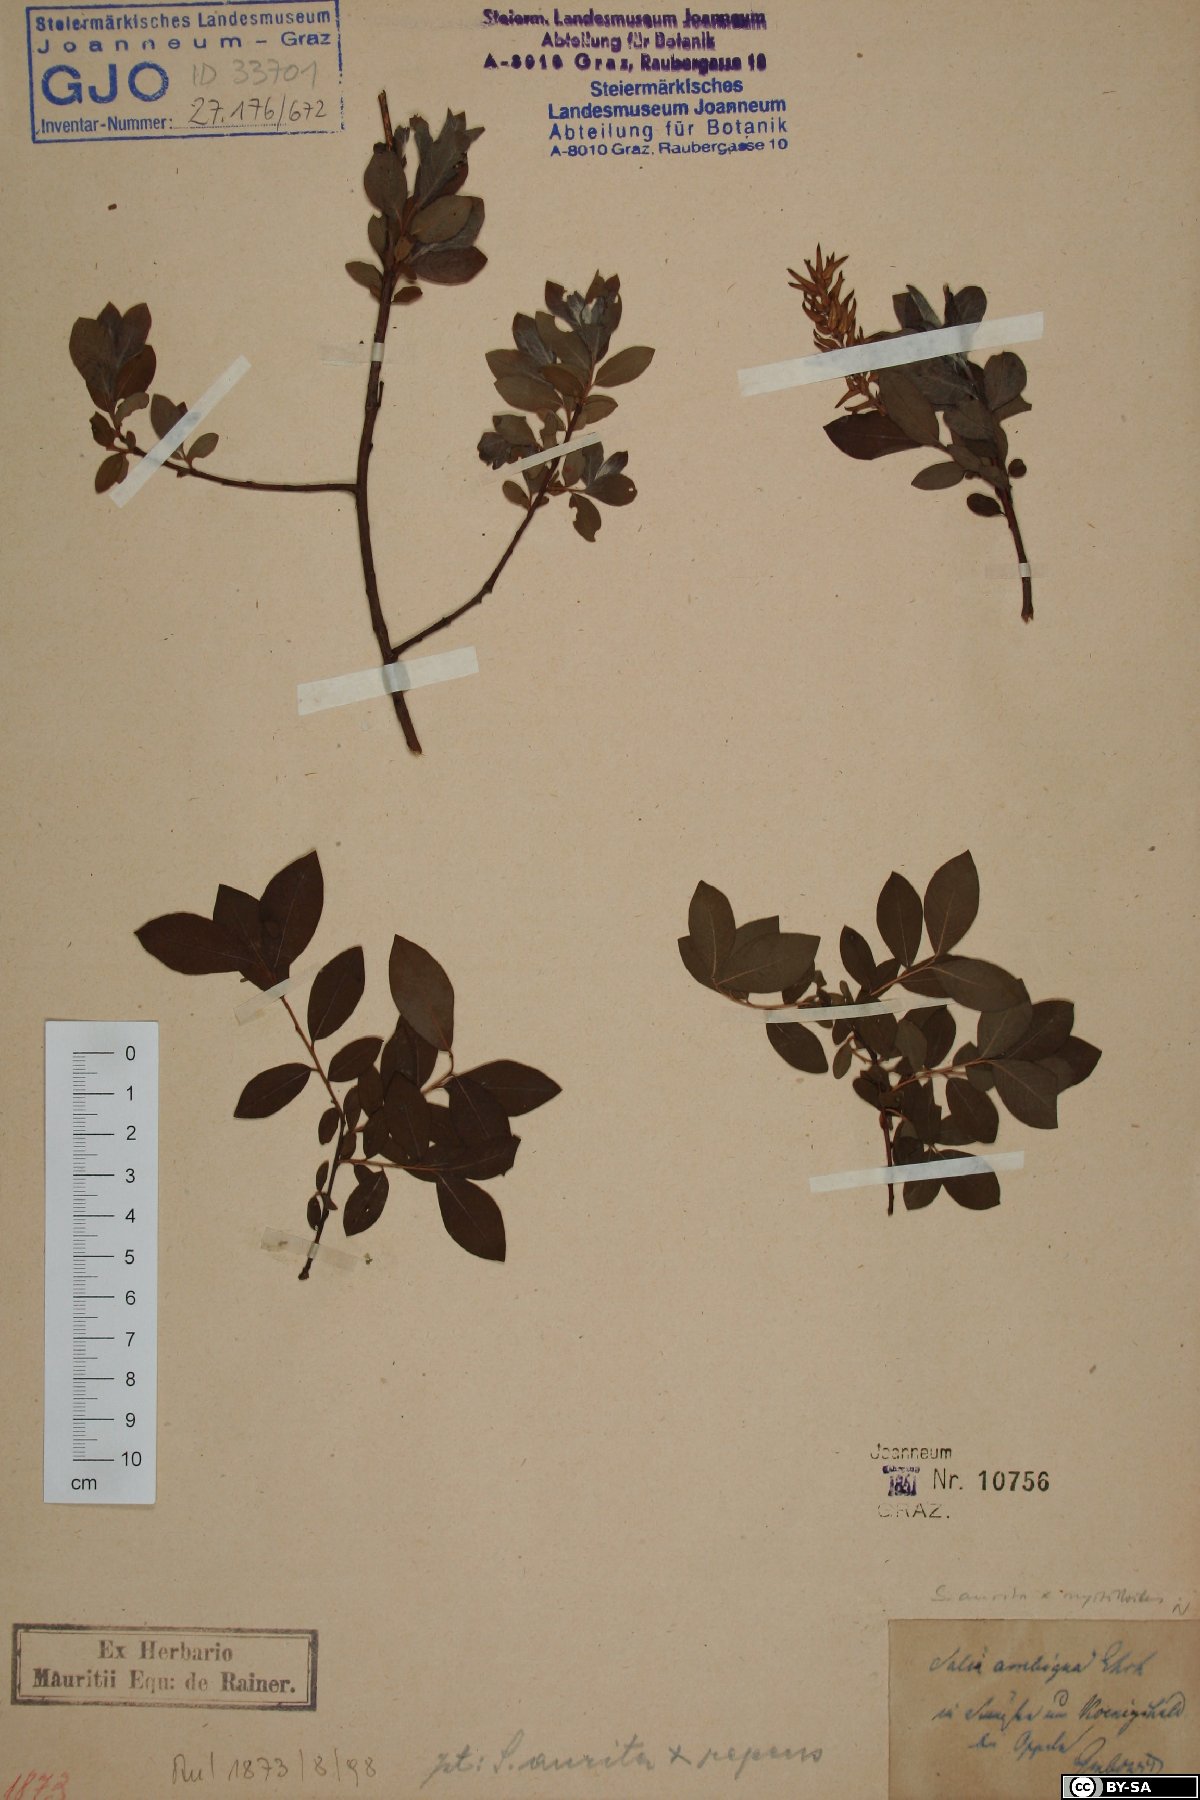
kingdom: Plantae
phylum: Tracheophyta
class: Magnoliopsida
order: Malpighiales
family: Salicaceae
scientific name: Salicaceae
